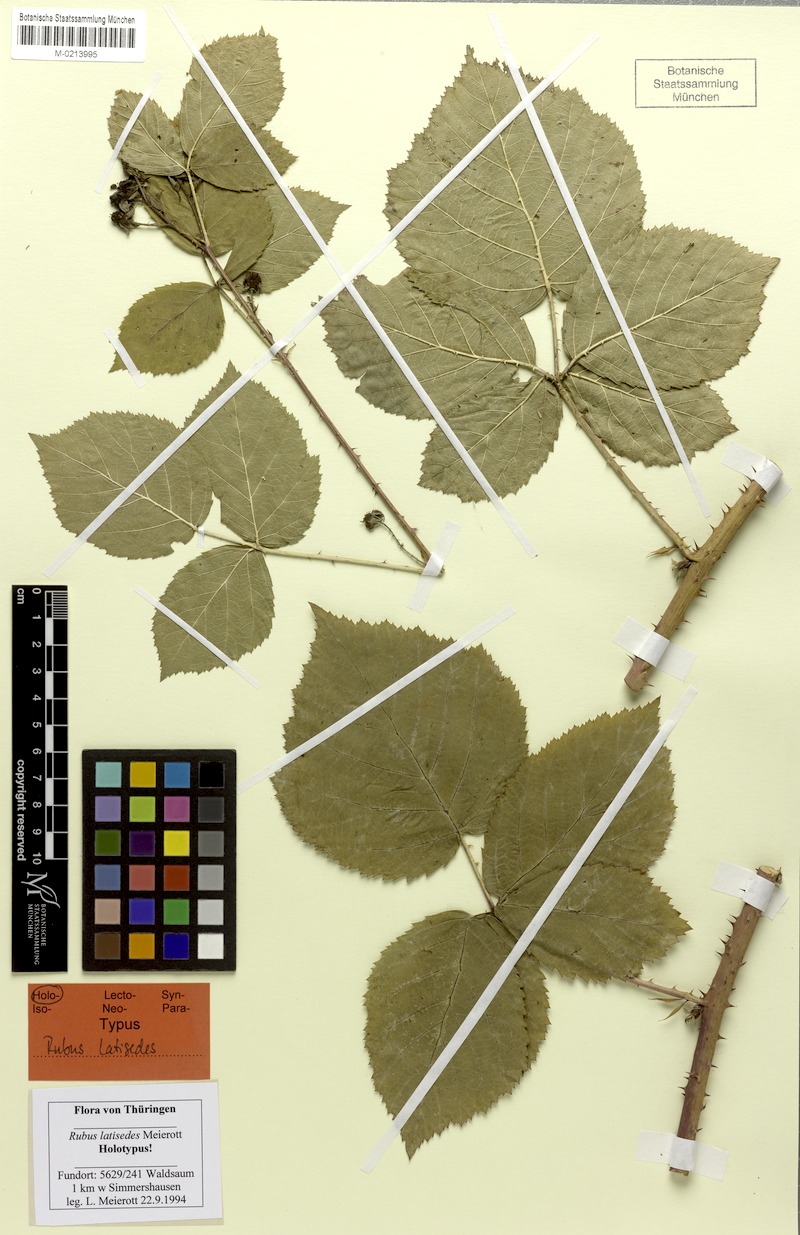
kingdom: Plantae
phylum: Tracheophyta
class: Magnoliopsida
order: Rosales
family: Rosaceae
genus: Rubus
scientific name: Rubus latisedes
